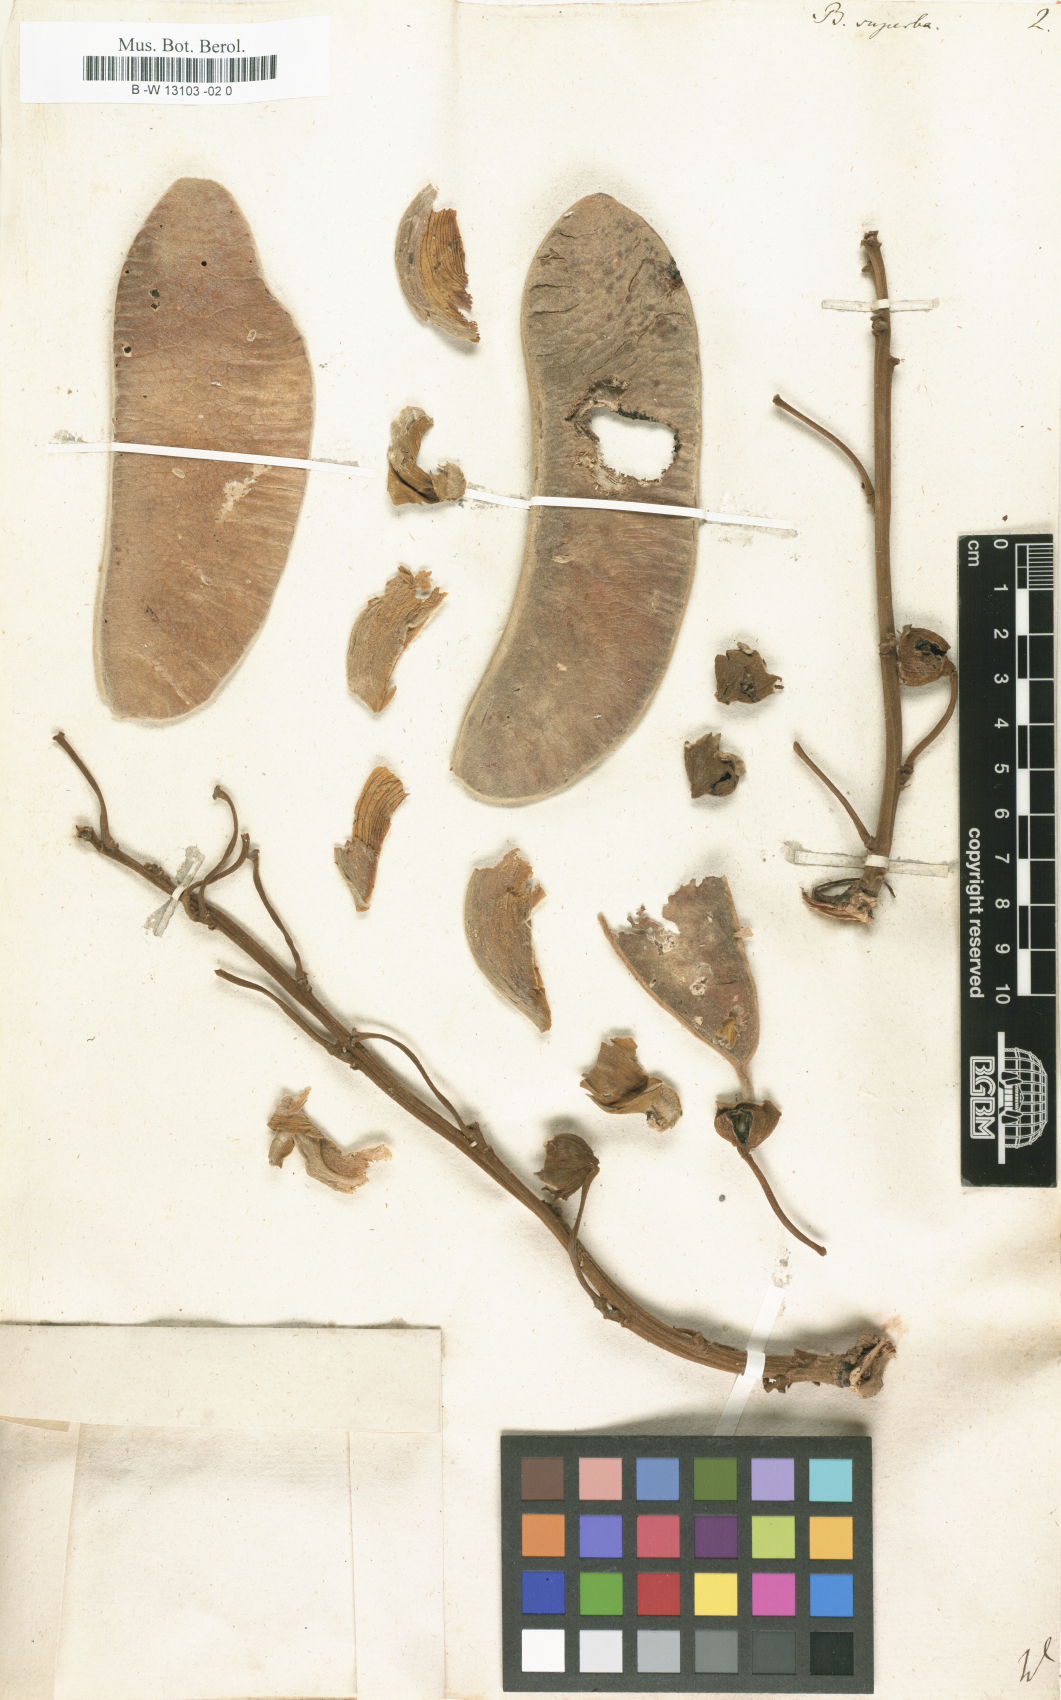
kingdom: Plantae
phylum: Tracheophyta
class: Magnoliopsida
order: Fabales
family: Fabaceae
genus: Butea
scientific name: Butea superba
